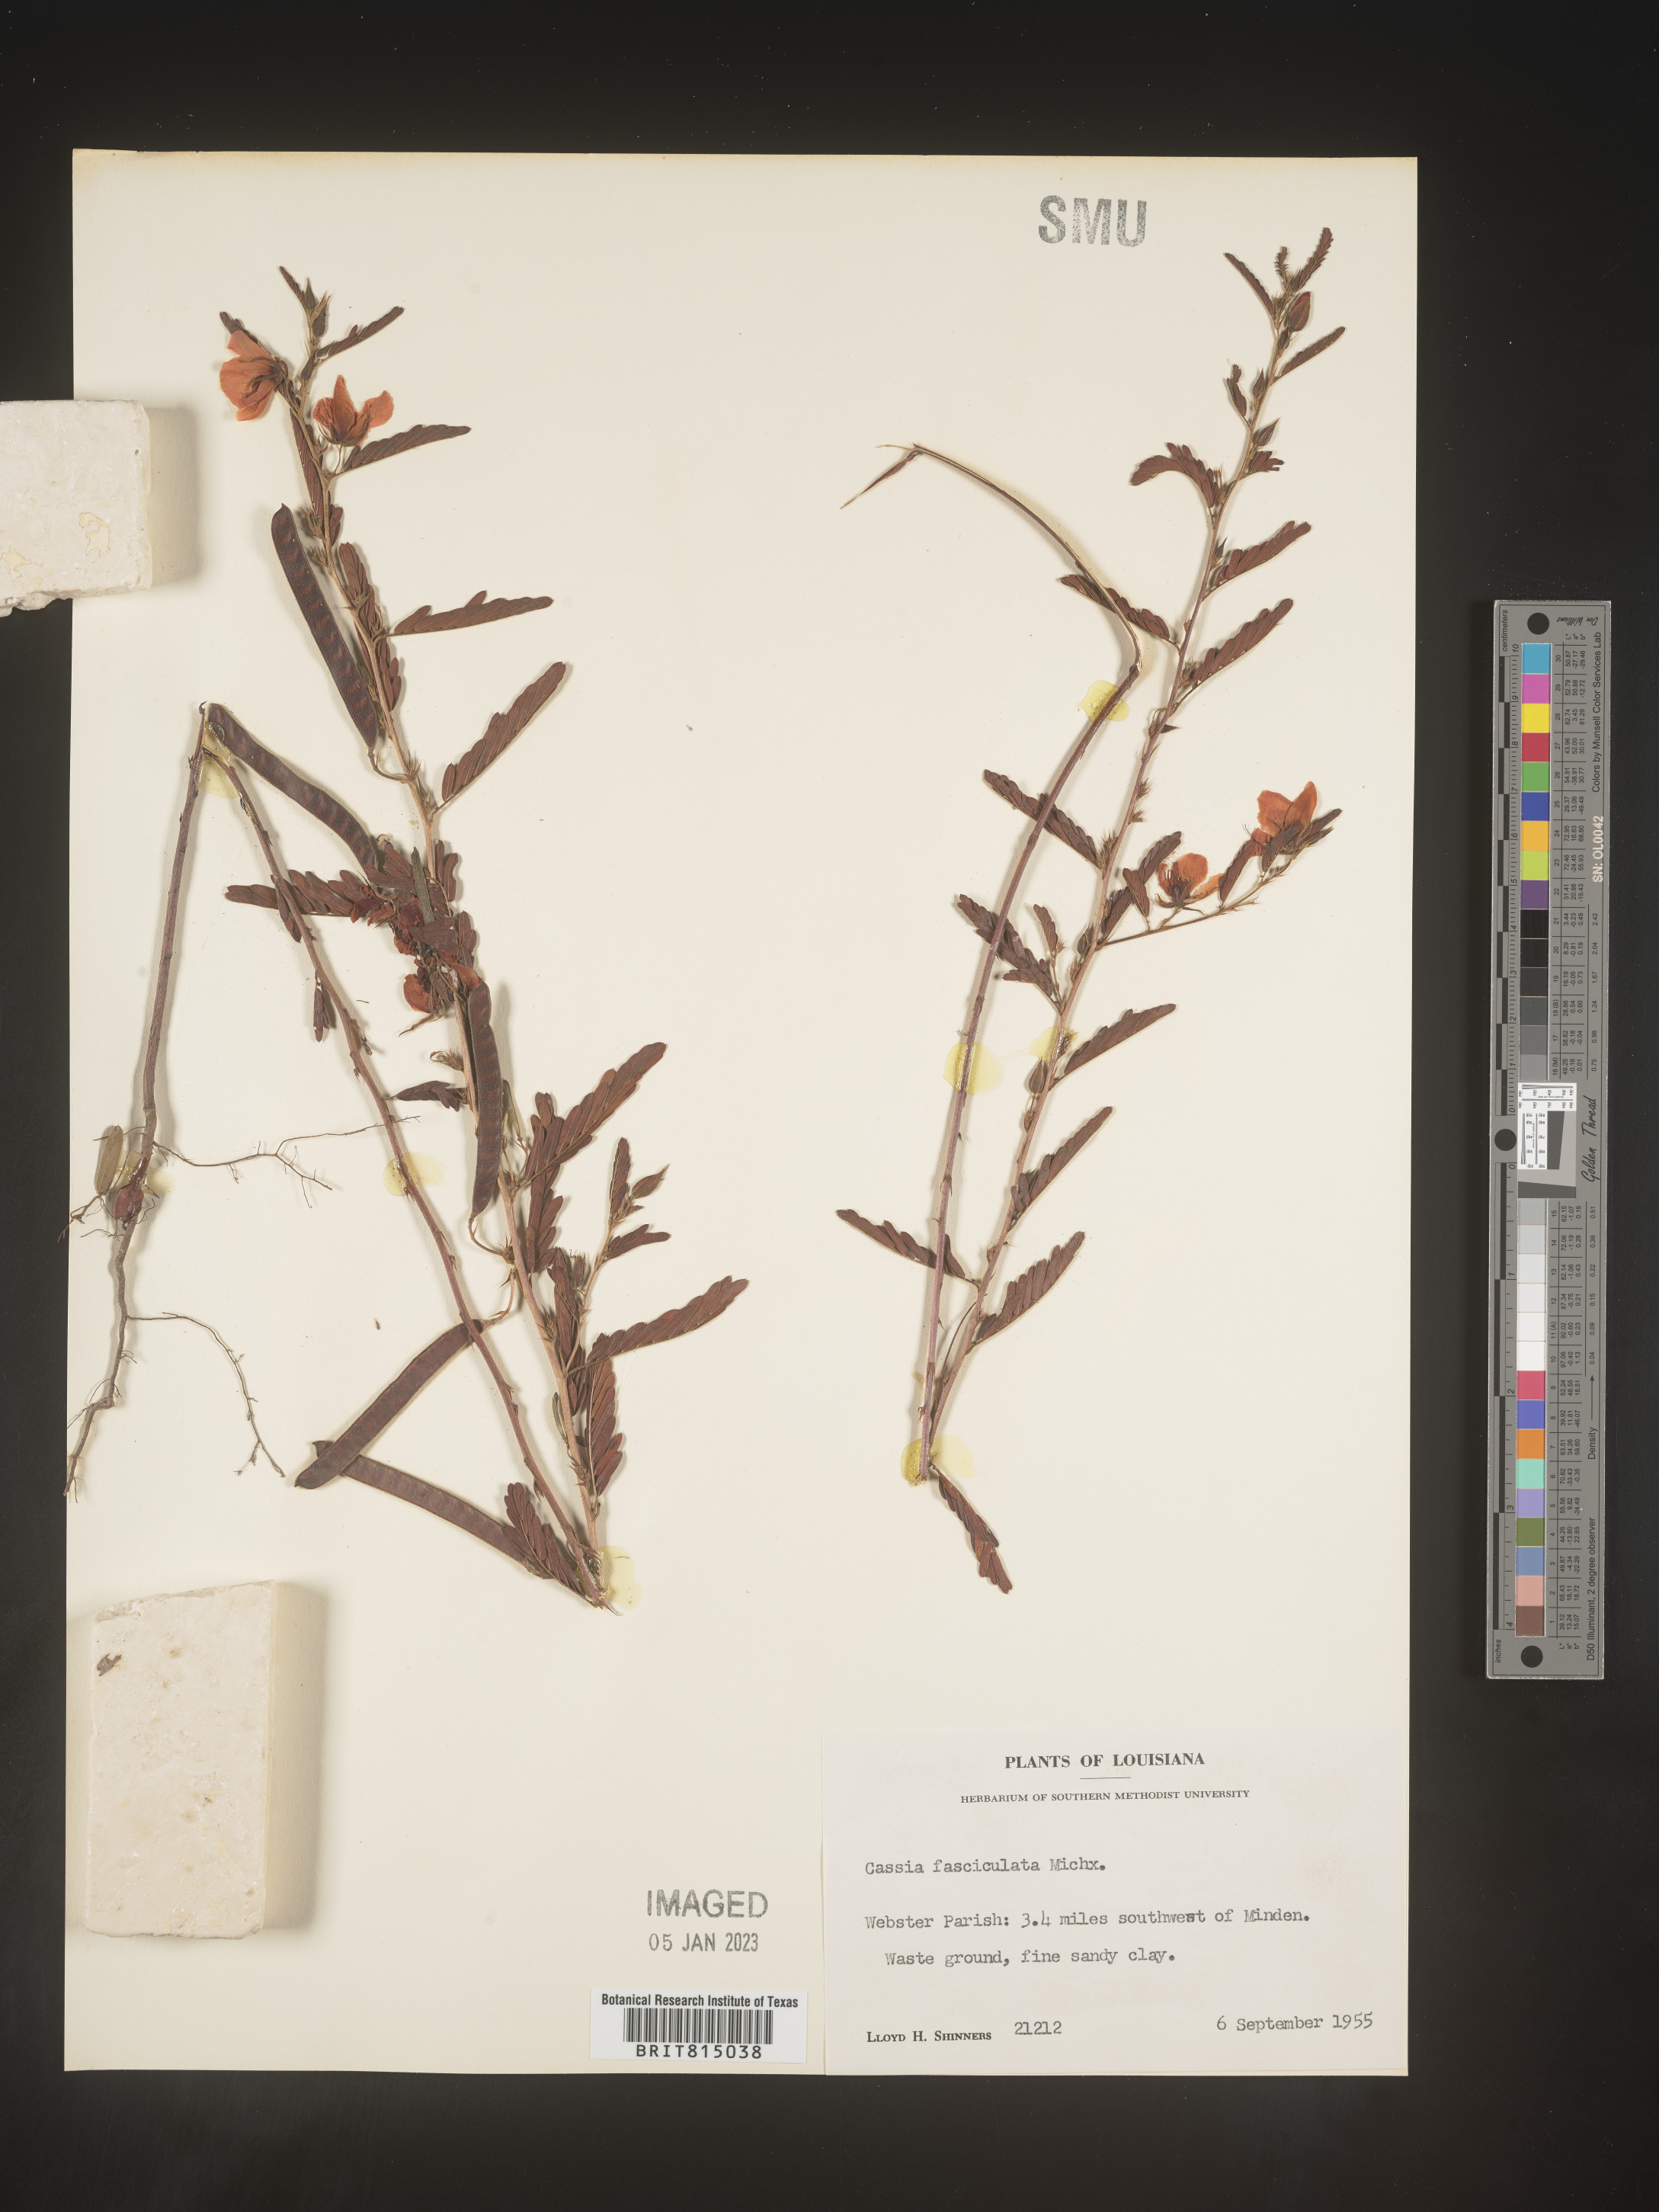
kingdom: Plantae
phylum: Tracheophyta
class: Magnoliopsida
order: Fabales
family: Fabaceae
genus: Chamaecrista
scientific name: Chamaecrista fasciculata
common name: Golden cassia
